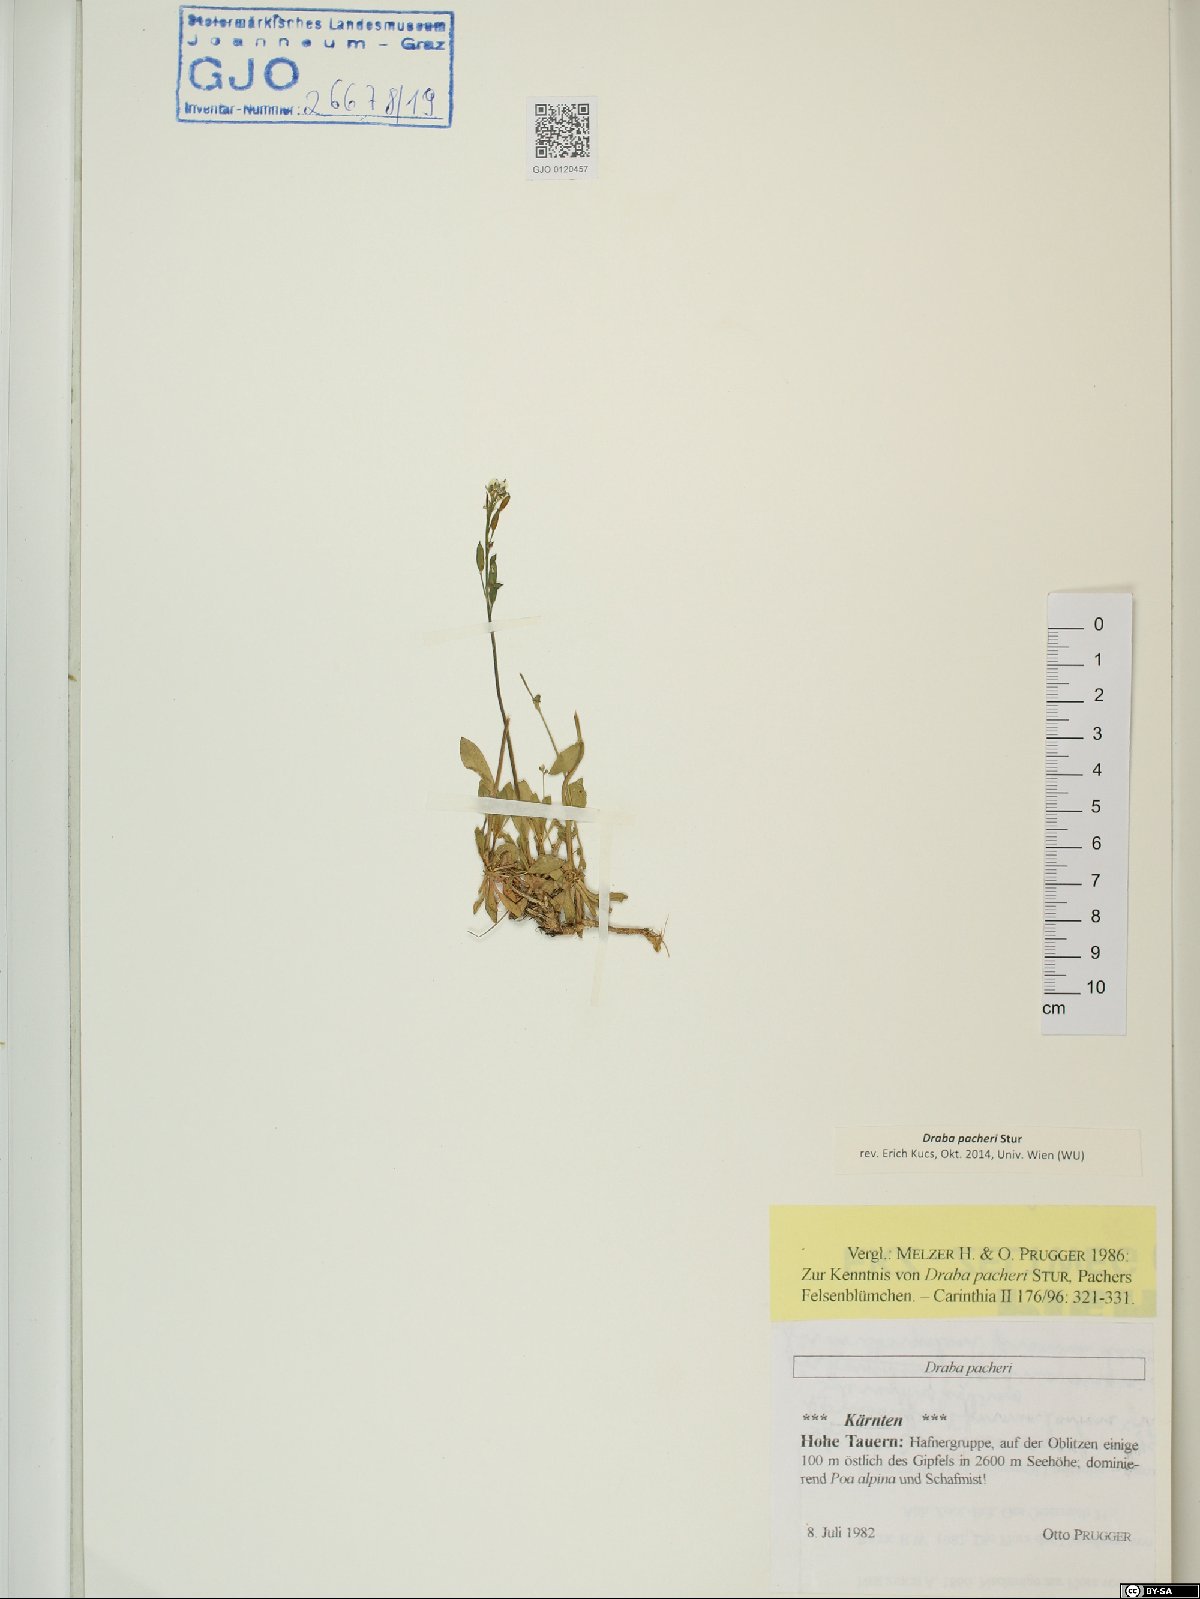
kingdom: Plantae
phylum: Tracheophyta
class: Magnoliopsida
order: Brassicales
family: Brassicaceae
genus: Draba
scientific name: Draba pacheri
